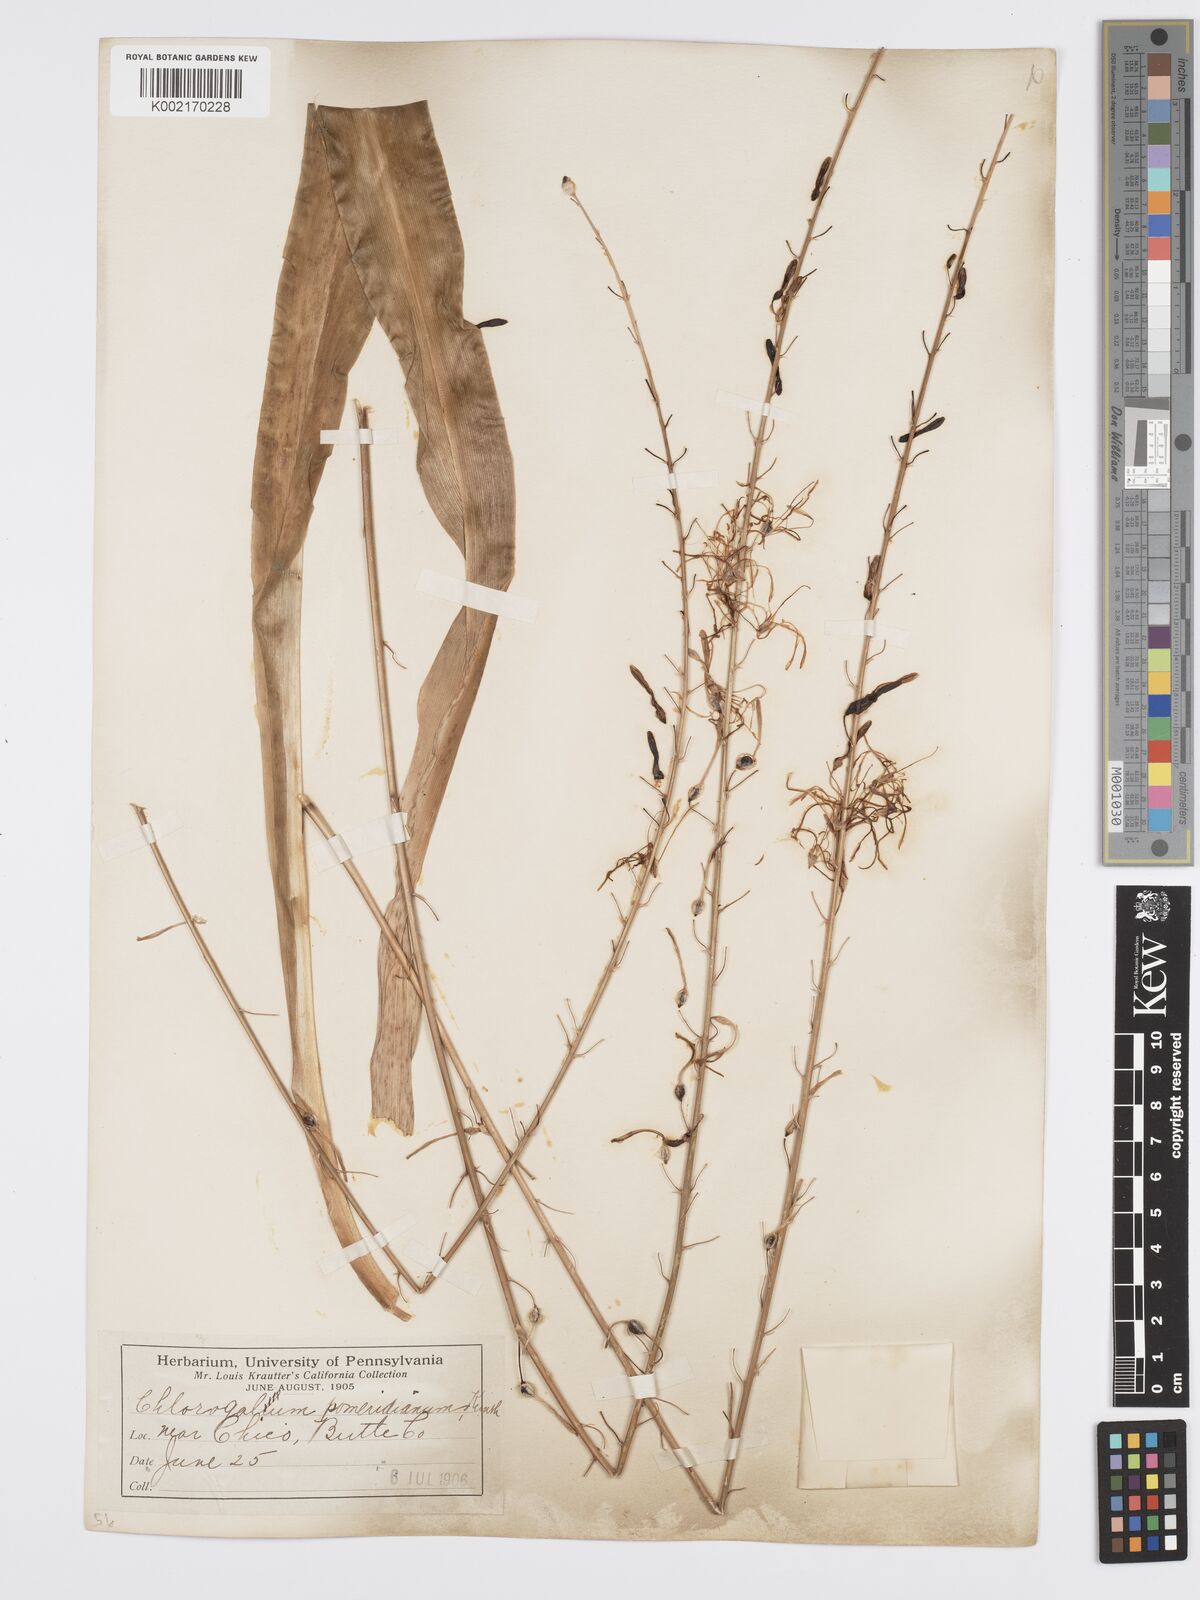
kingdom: Plantae
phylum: Tracheophyta
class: Liliopsida
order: Asparagales
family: Asparagaceae
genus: Chlorogalum
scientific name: Chlorogalum pomeridianum
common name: Amole
